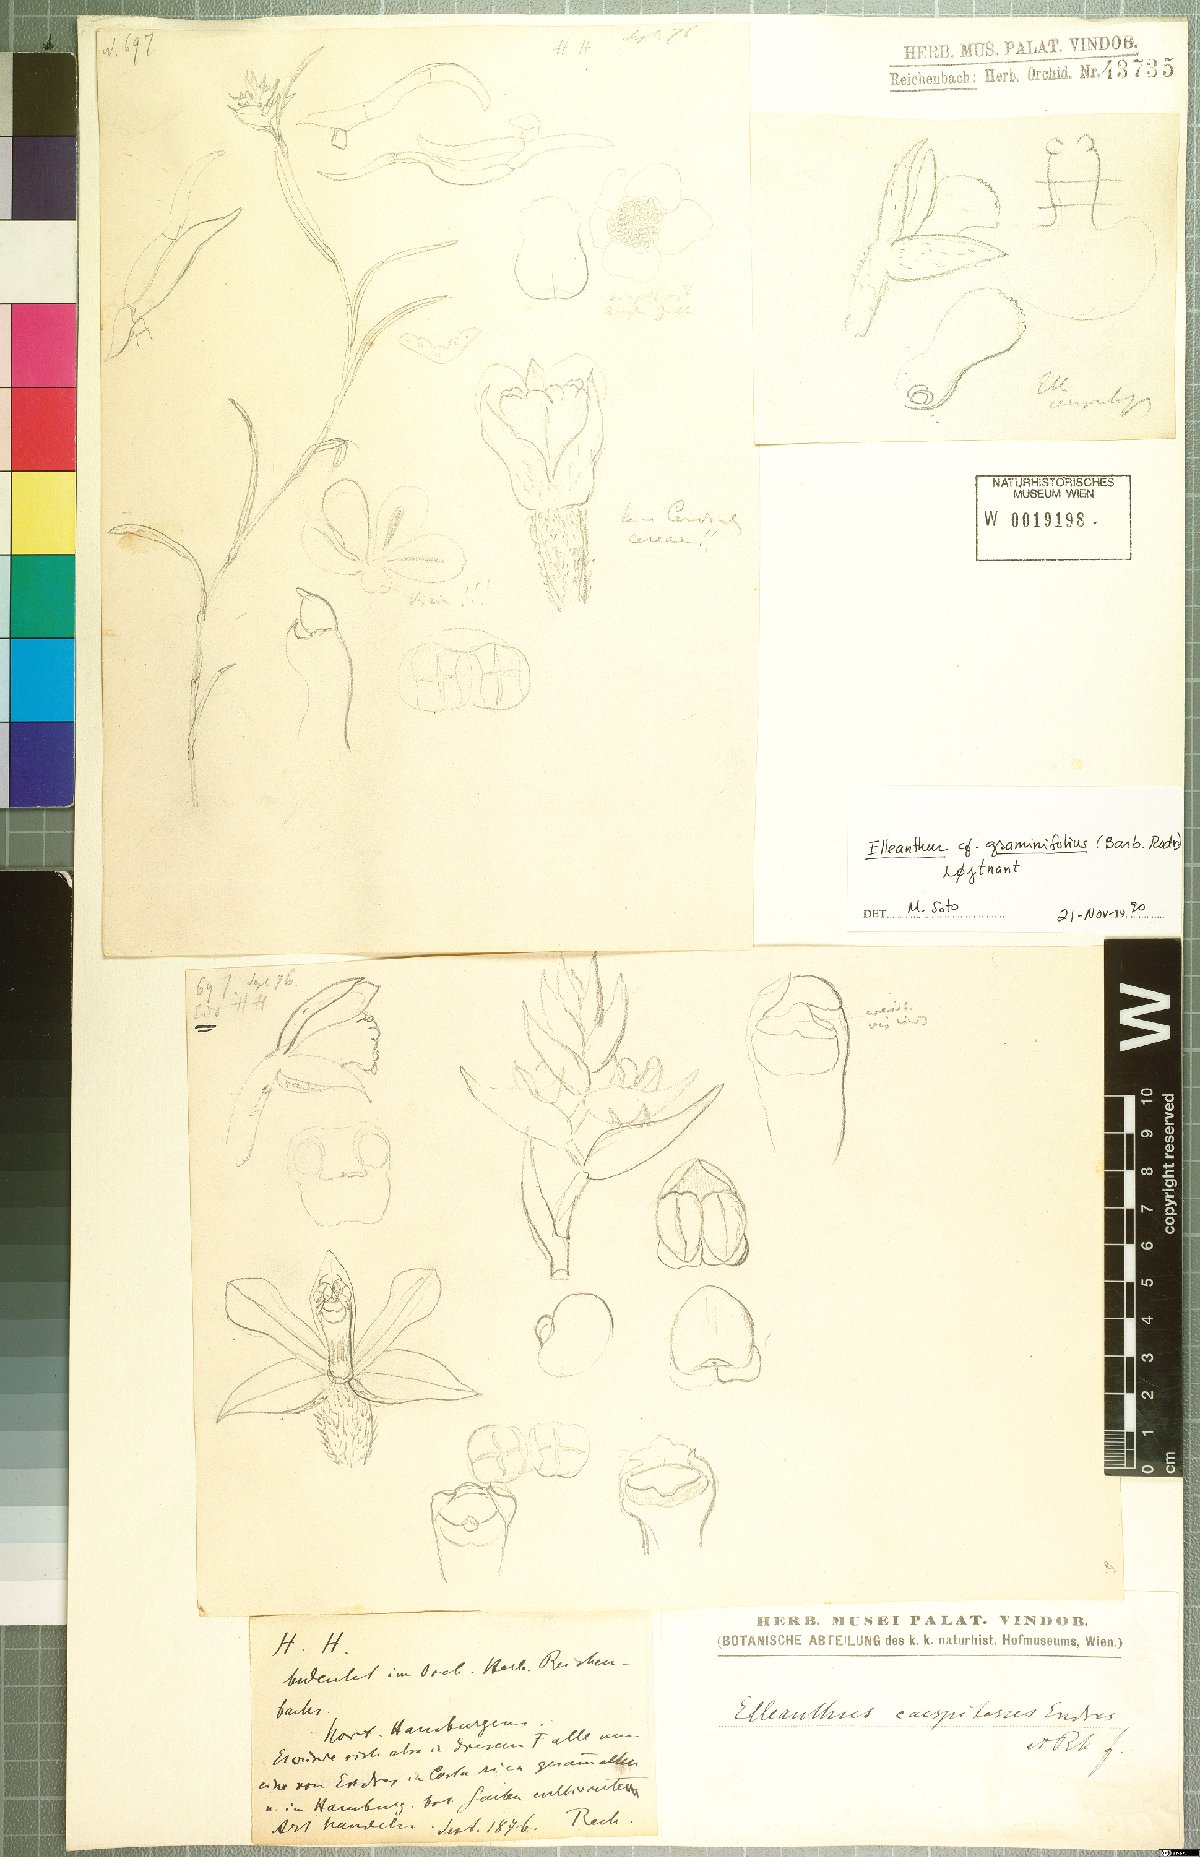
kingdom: Plantae
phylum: Tracheophyta
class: Liliopsida
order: Asparagales
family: Orchidaceae
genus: Elleanthus
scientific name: Elleanthus graminifolius
